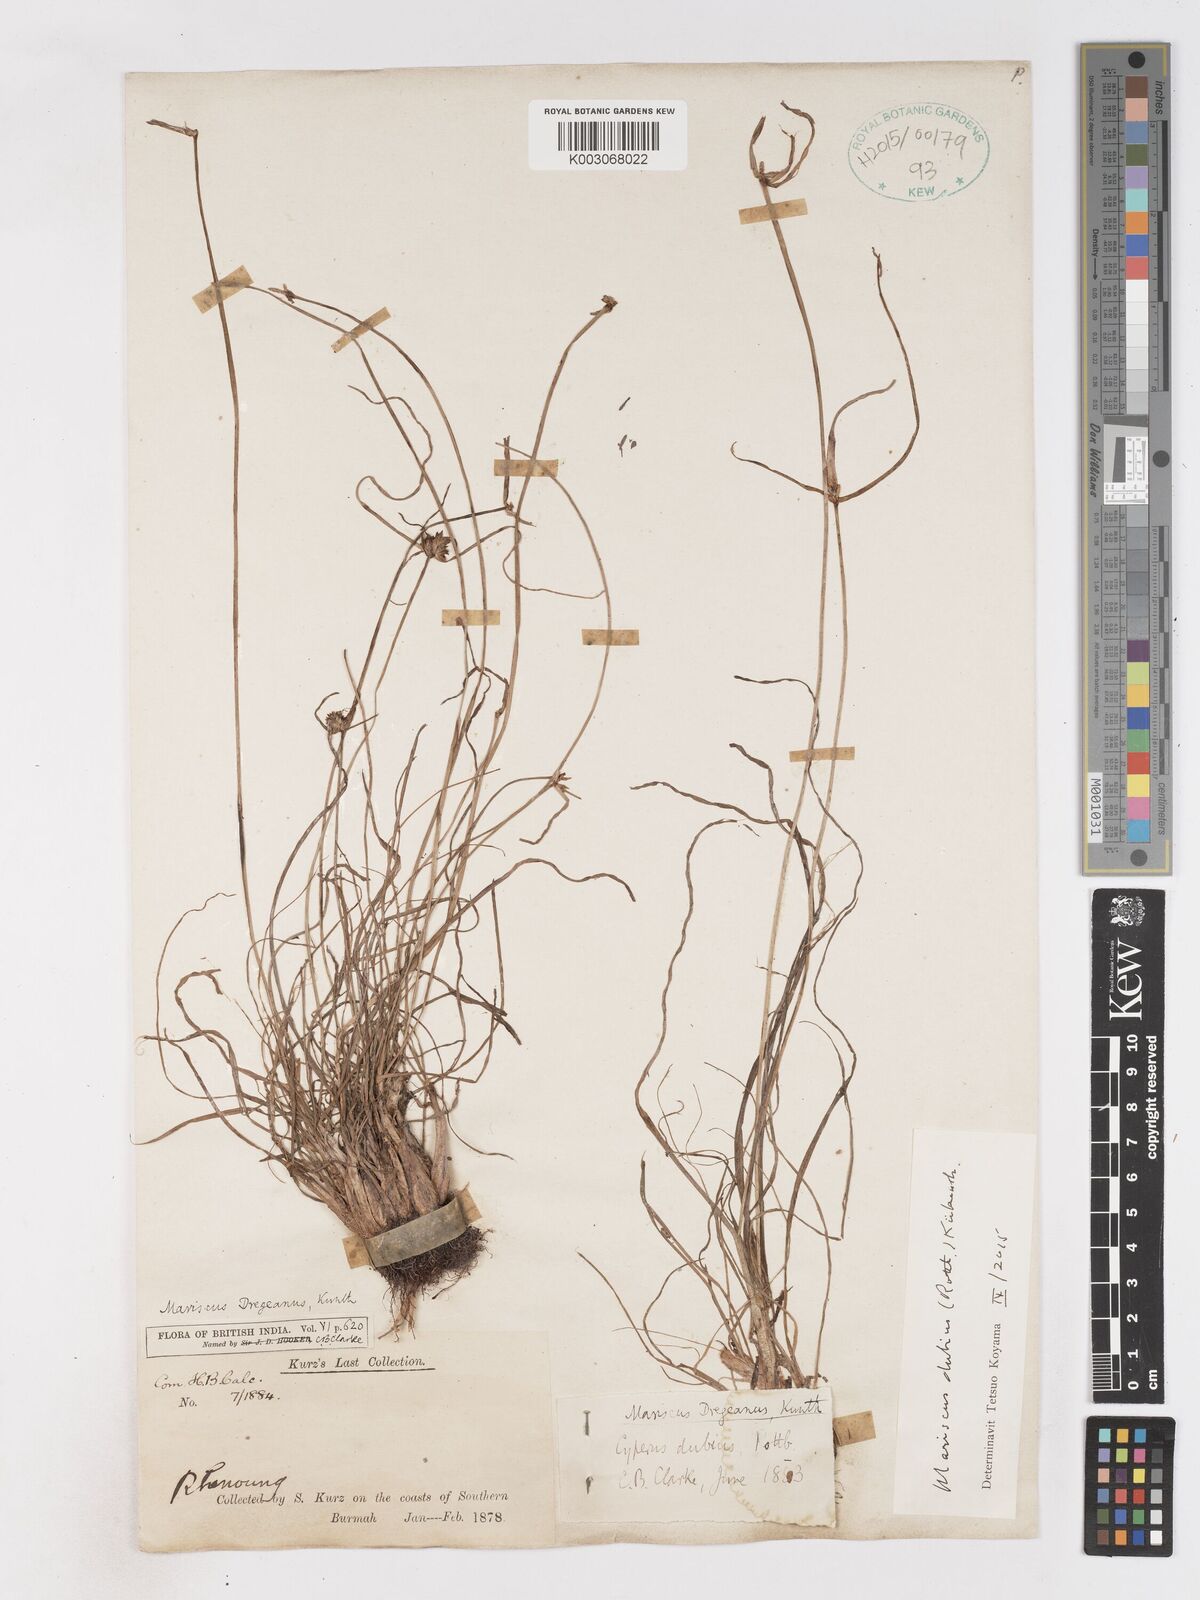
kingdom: Plantae
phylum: Tracheophyta
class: Liliopsida
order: Poales
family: Cyperaceae
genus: Cyperus
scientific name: Cyperus dubius
